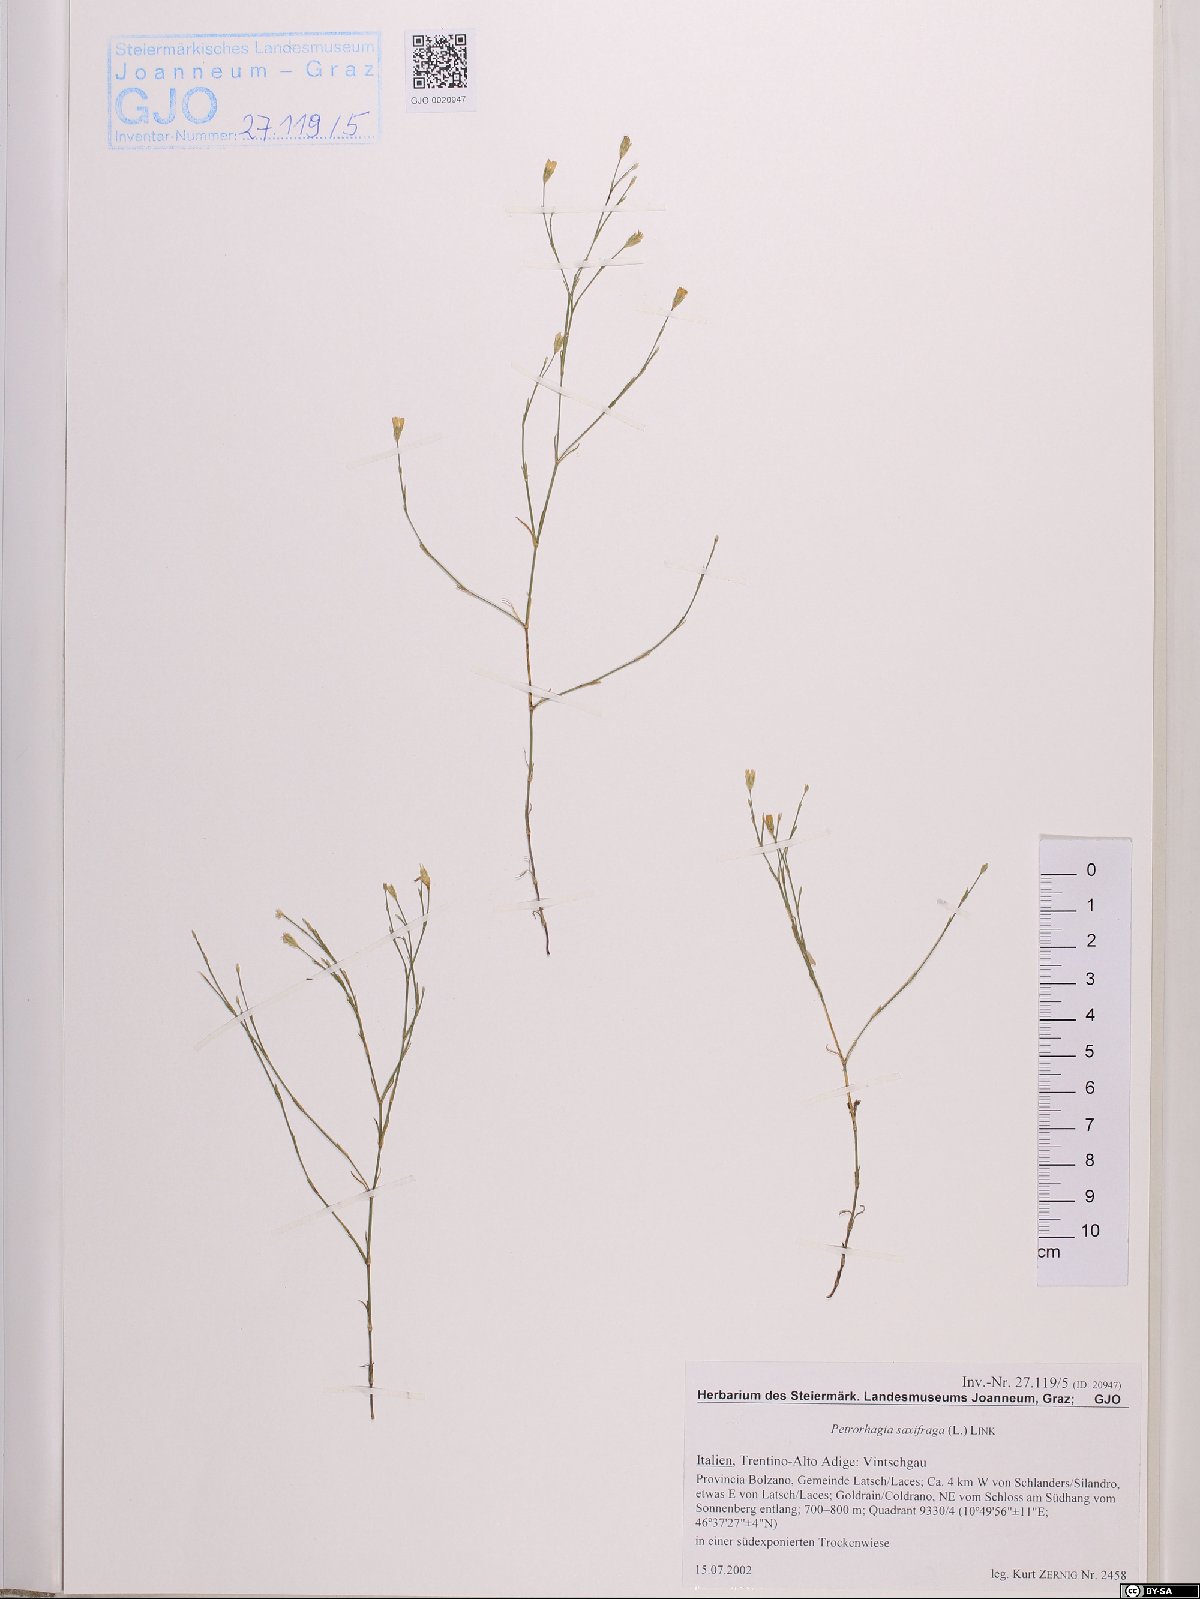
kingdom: Plantae
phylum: Tracheophyta
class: Magnoliopsida
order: Caryophyllales
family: Caryophyllaceae
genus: Petrorhagia
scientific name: Petrorhagia saxifraga
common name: Tunicflower
